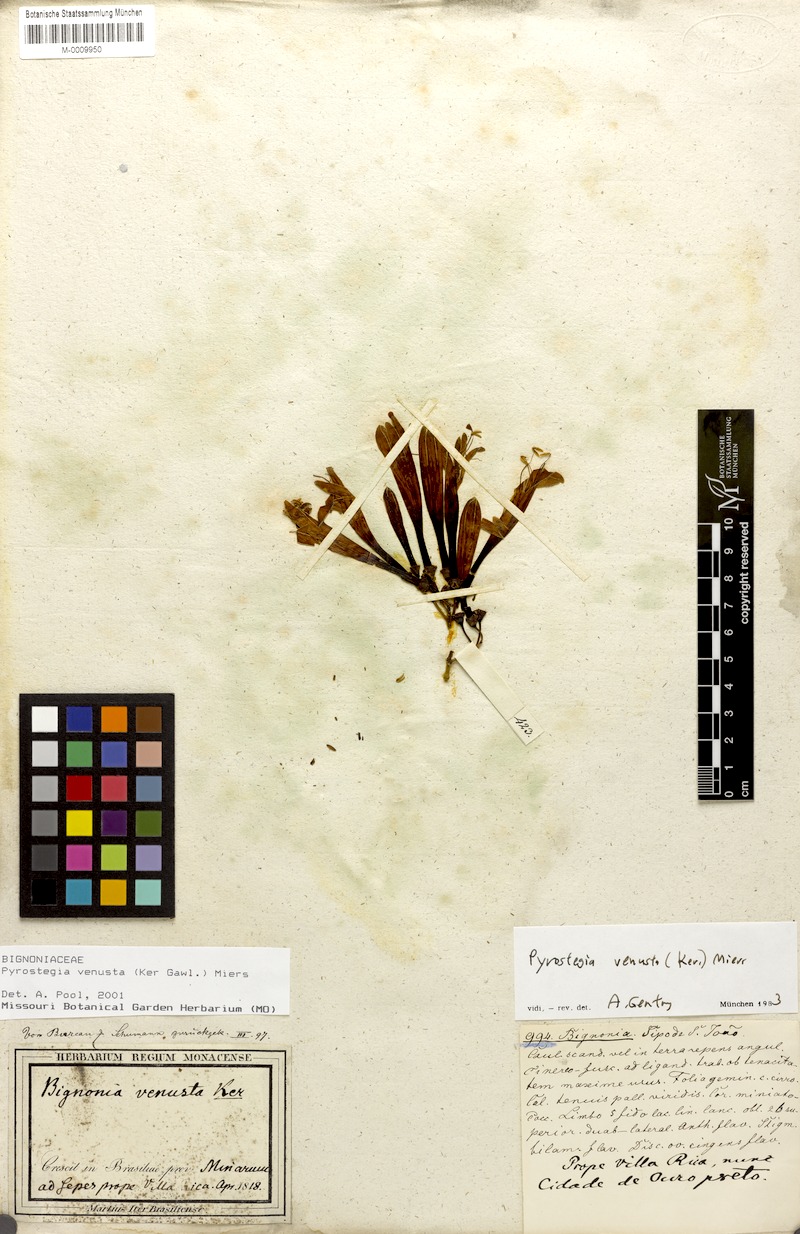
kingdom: Plantae
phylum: Tracheophyta
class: Magnoliopsida
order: Lamiales
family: Bignoniaceae
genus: Pyrostegia
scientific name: Pyrostegia venusta
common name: Flamevine
